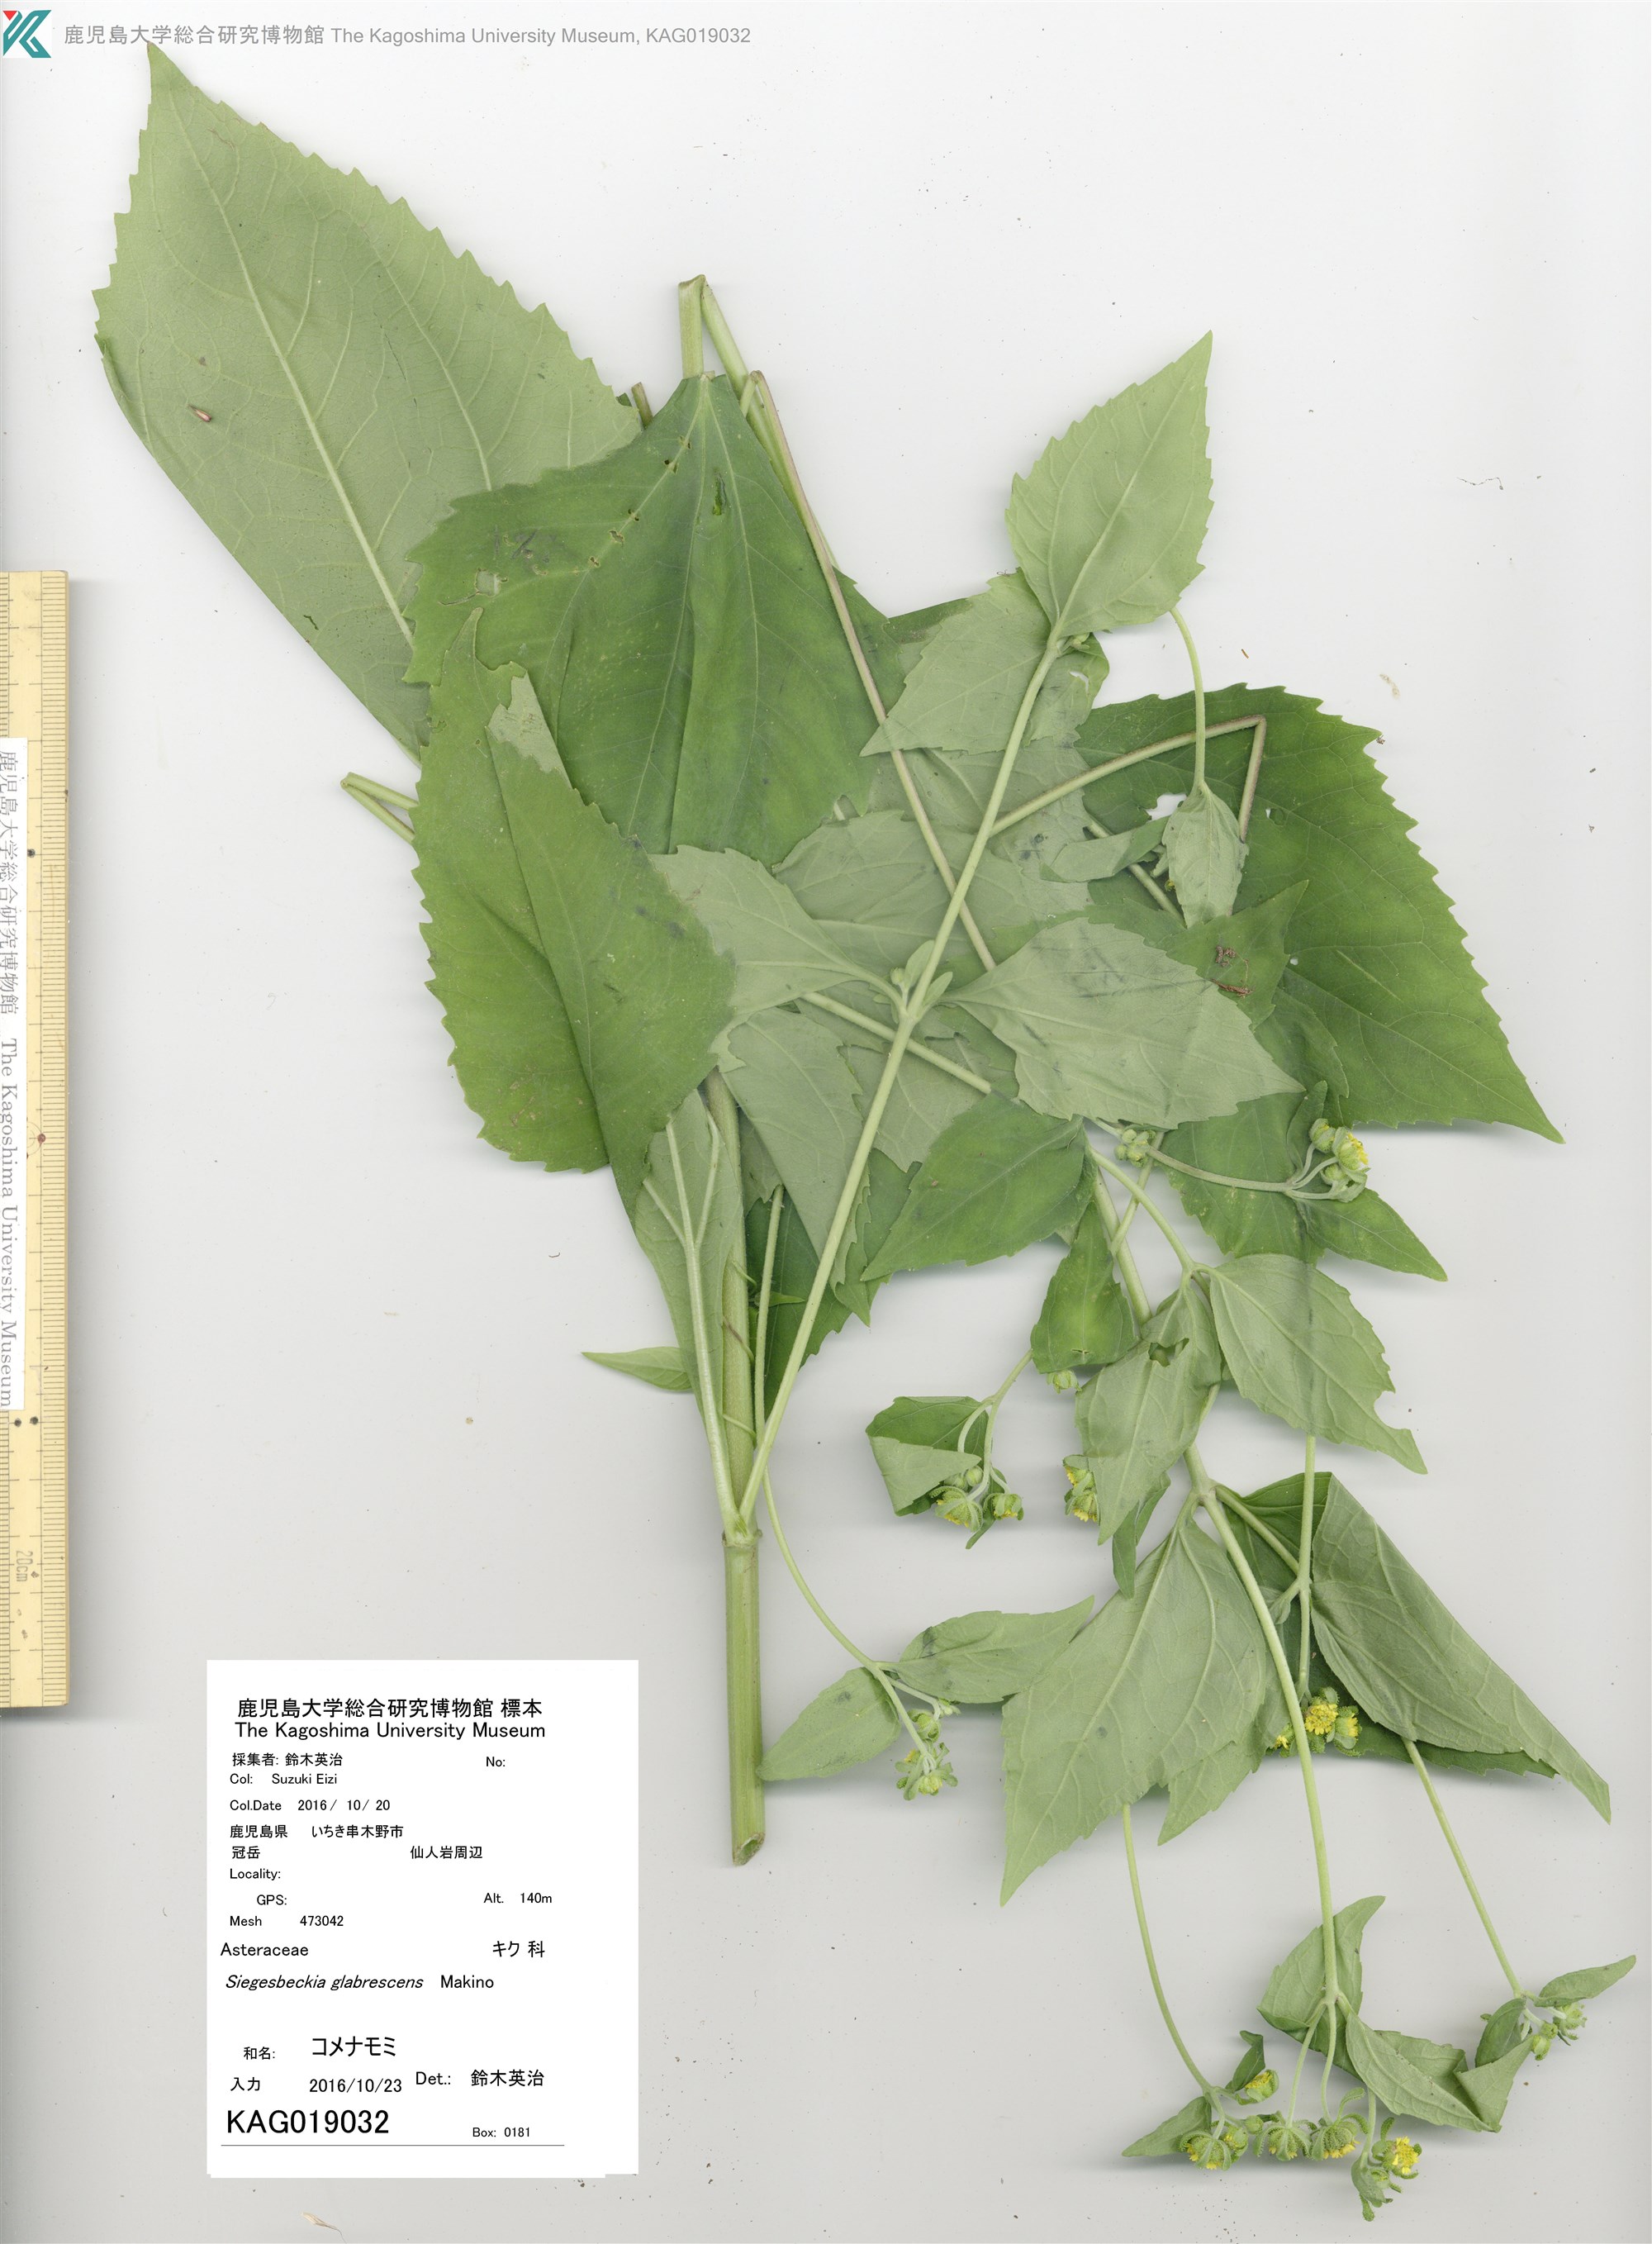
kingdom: Plantae
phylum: Tracheophyta
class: Magnoliopsida
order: Asterales
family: Asteraceae
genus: Sigesbeckia
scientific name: Sigesbeckia glabrescens
